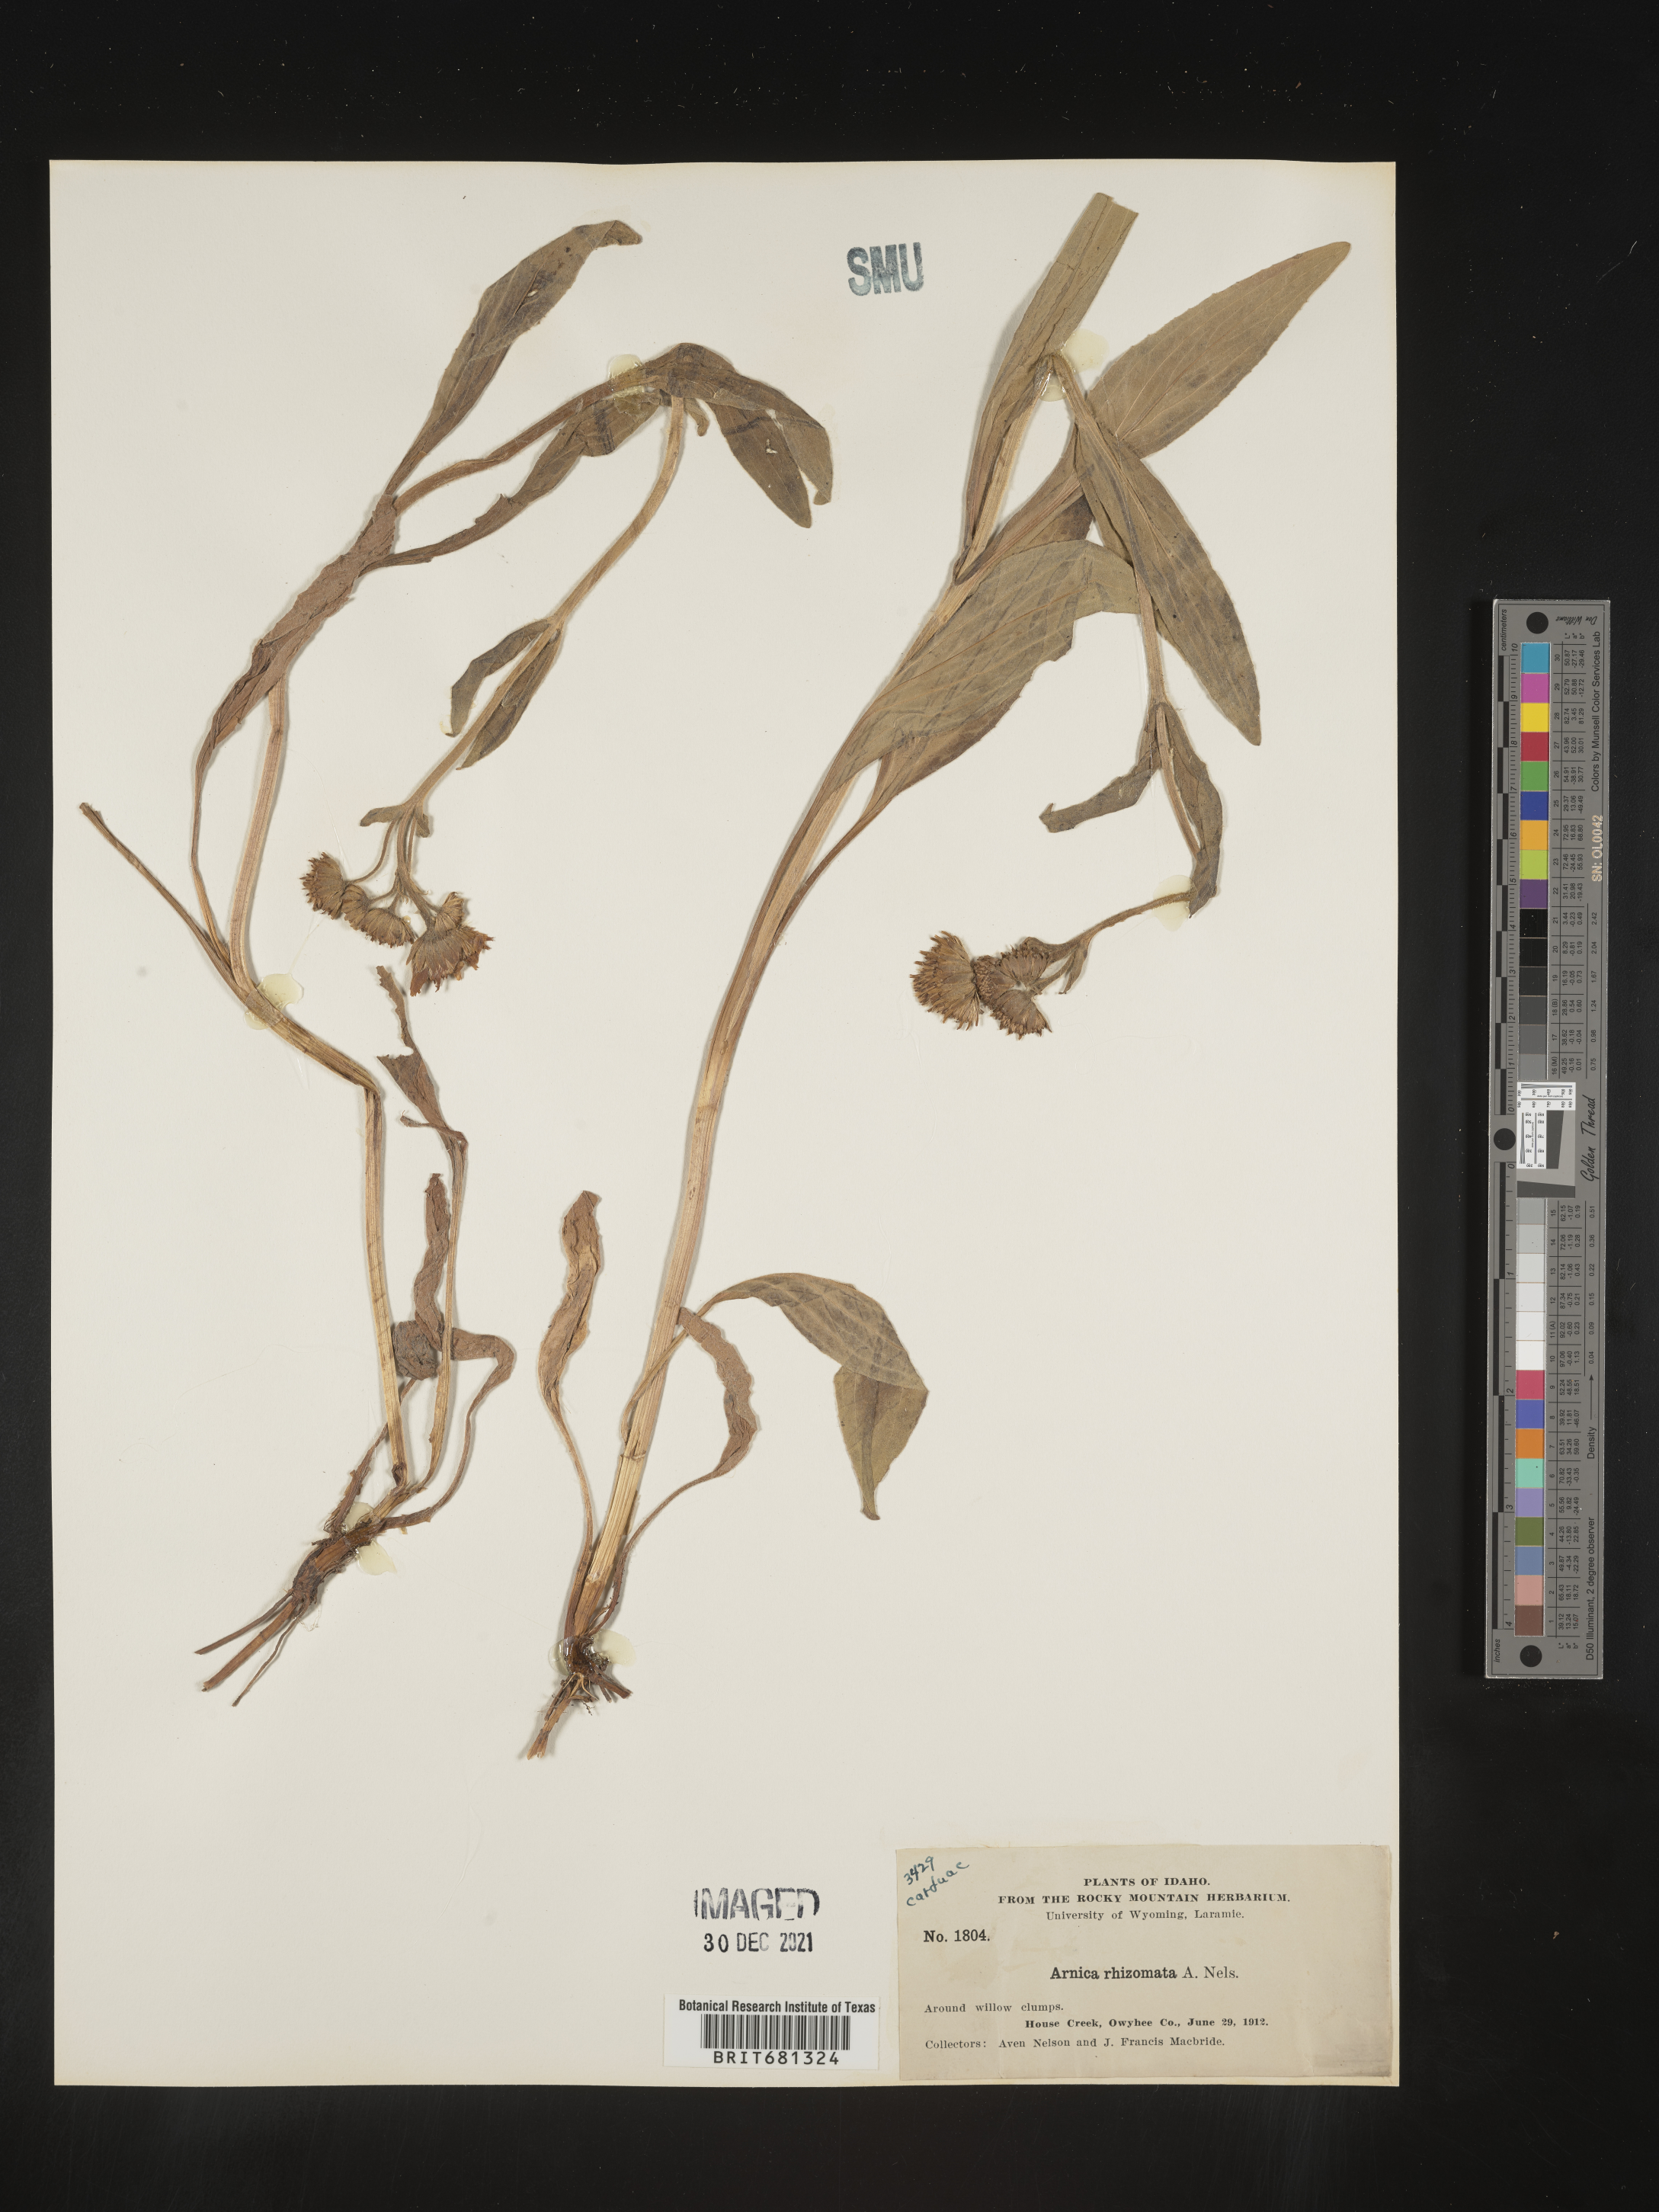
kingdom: Plantae
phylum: Tracheophyta
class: Magnoliopsida
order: Asterales
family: Asteraceae
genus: Arnica
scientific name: Arnica chamissonis
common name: Leafy arnica
